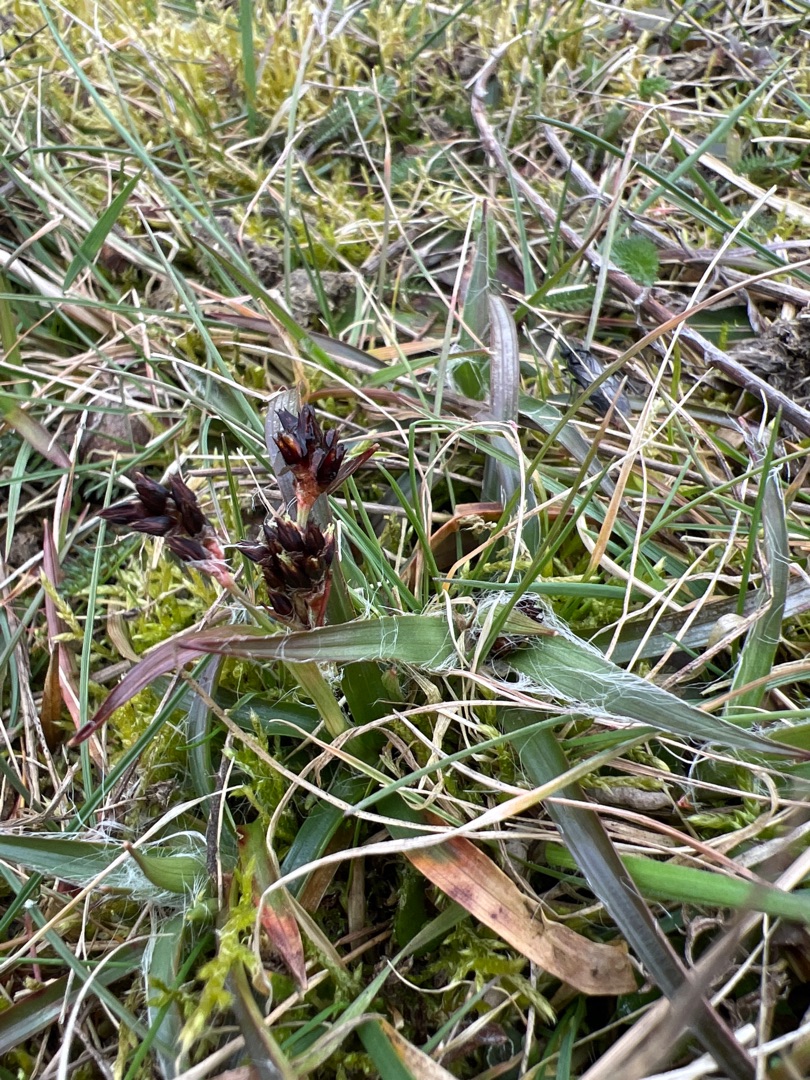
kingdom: Plantae
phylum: Tracheophyta
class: Liliopsida
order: Poales
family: Juncaceae
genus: Luzula
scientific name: Luzula campestris
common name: Mark-frytle
